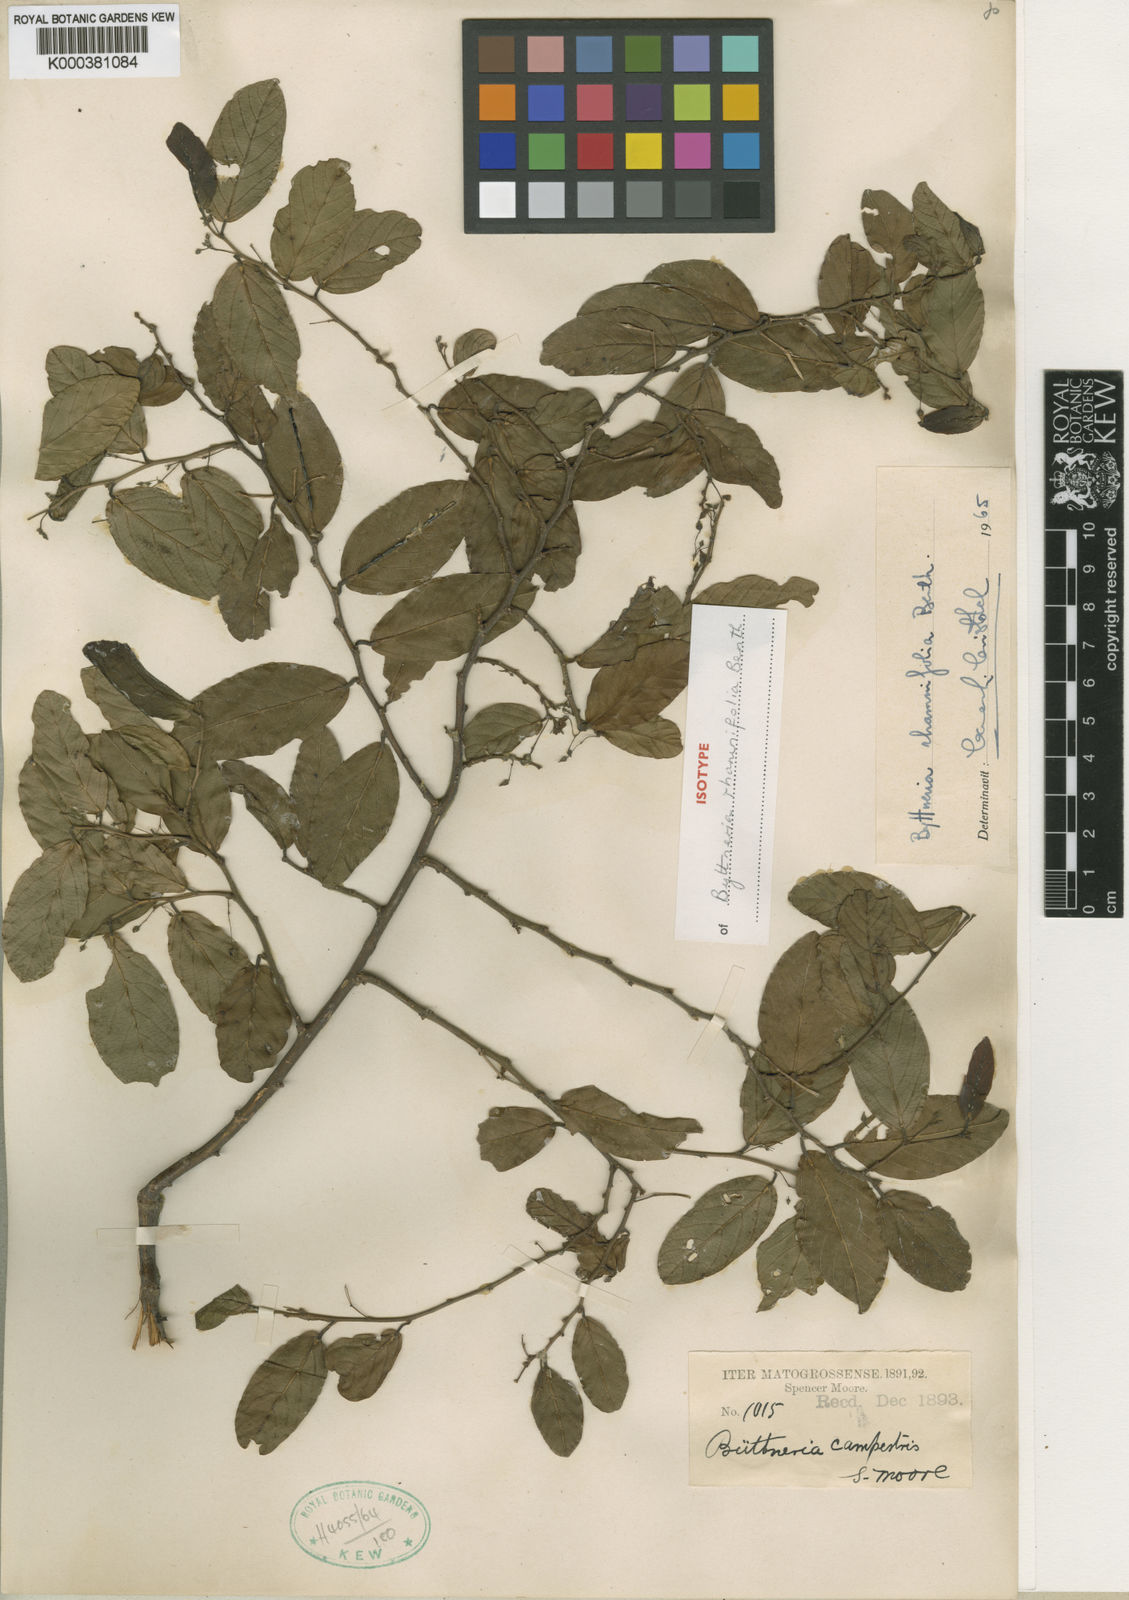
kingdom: Plantae
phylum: Tracheophyta
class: Magnoliopsida
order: Malvales
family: Malvaceae
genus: Byttneria
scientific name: Byttneria rhamnifolia
